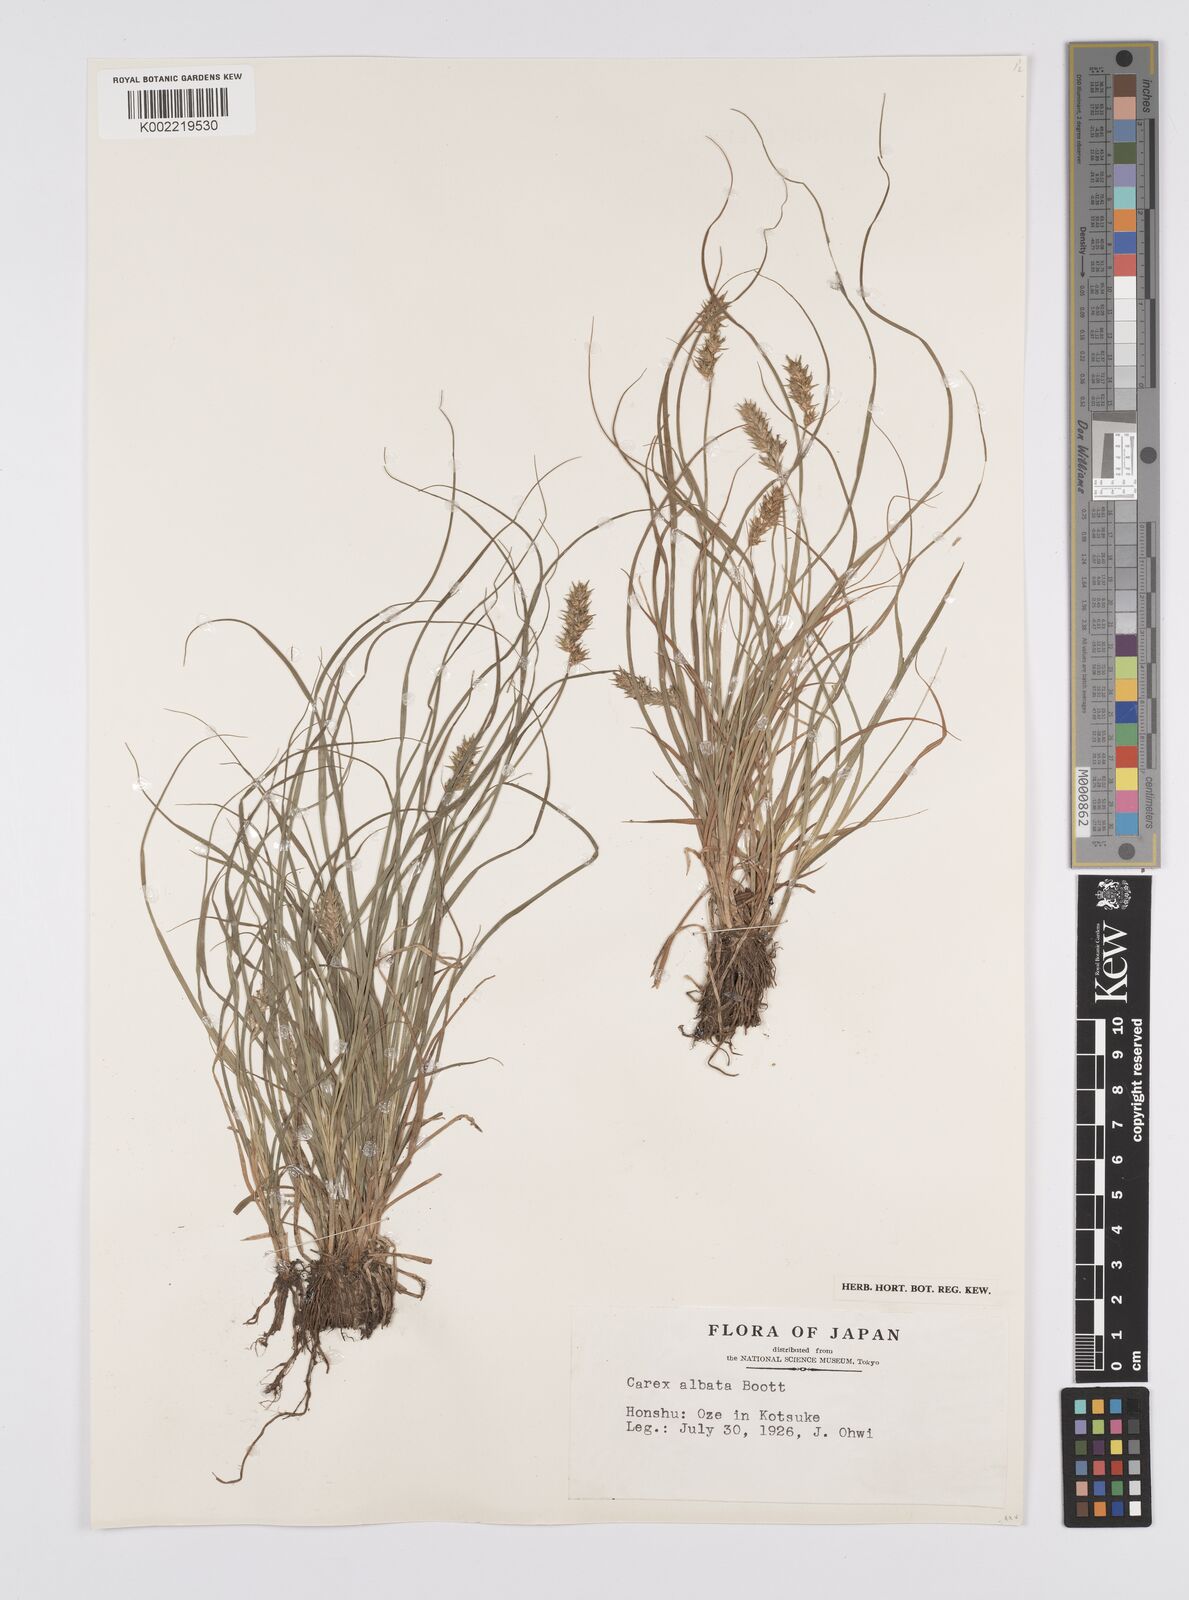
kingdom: Plantae
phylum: Tracheophyta
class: Liliopsida
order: Poales
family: Cyperaceae
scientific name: Cyperaceae
